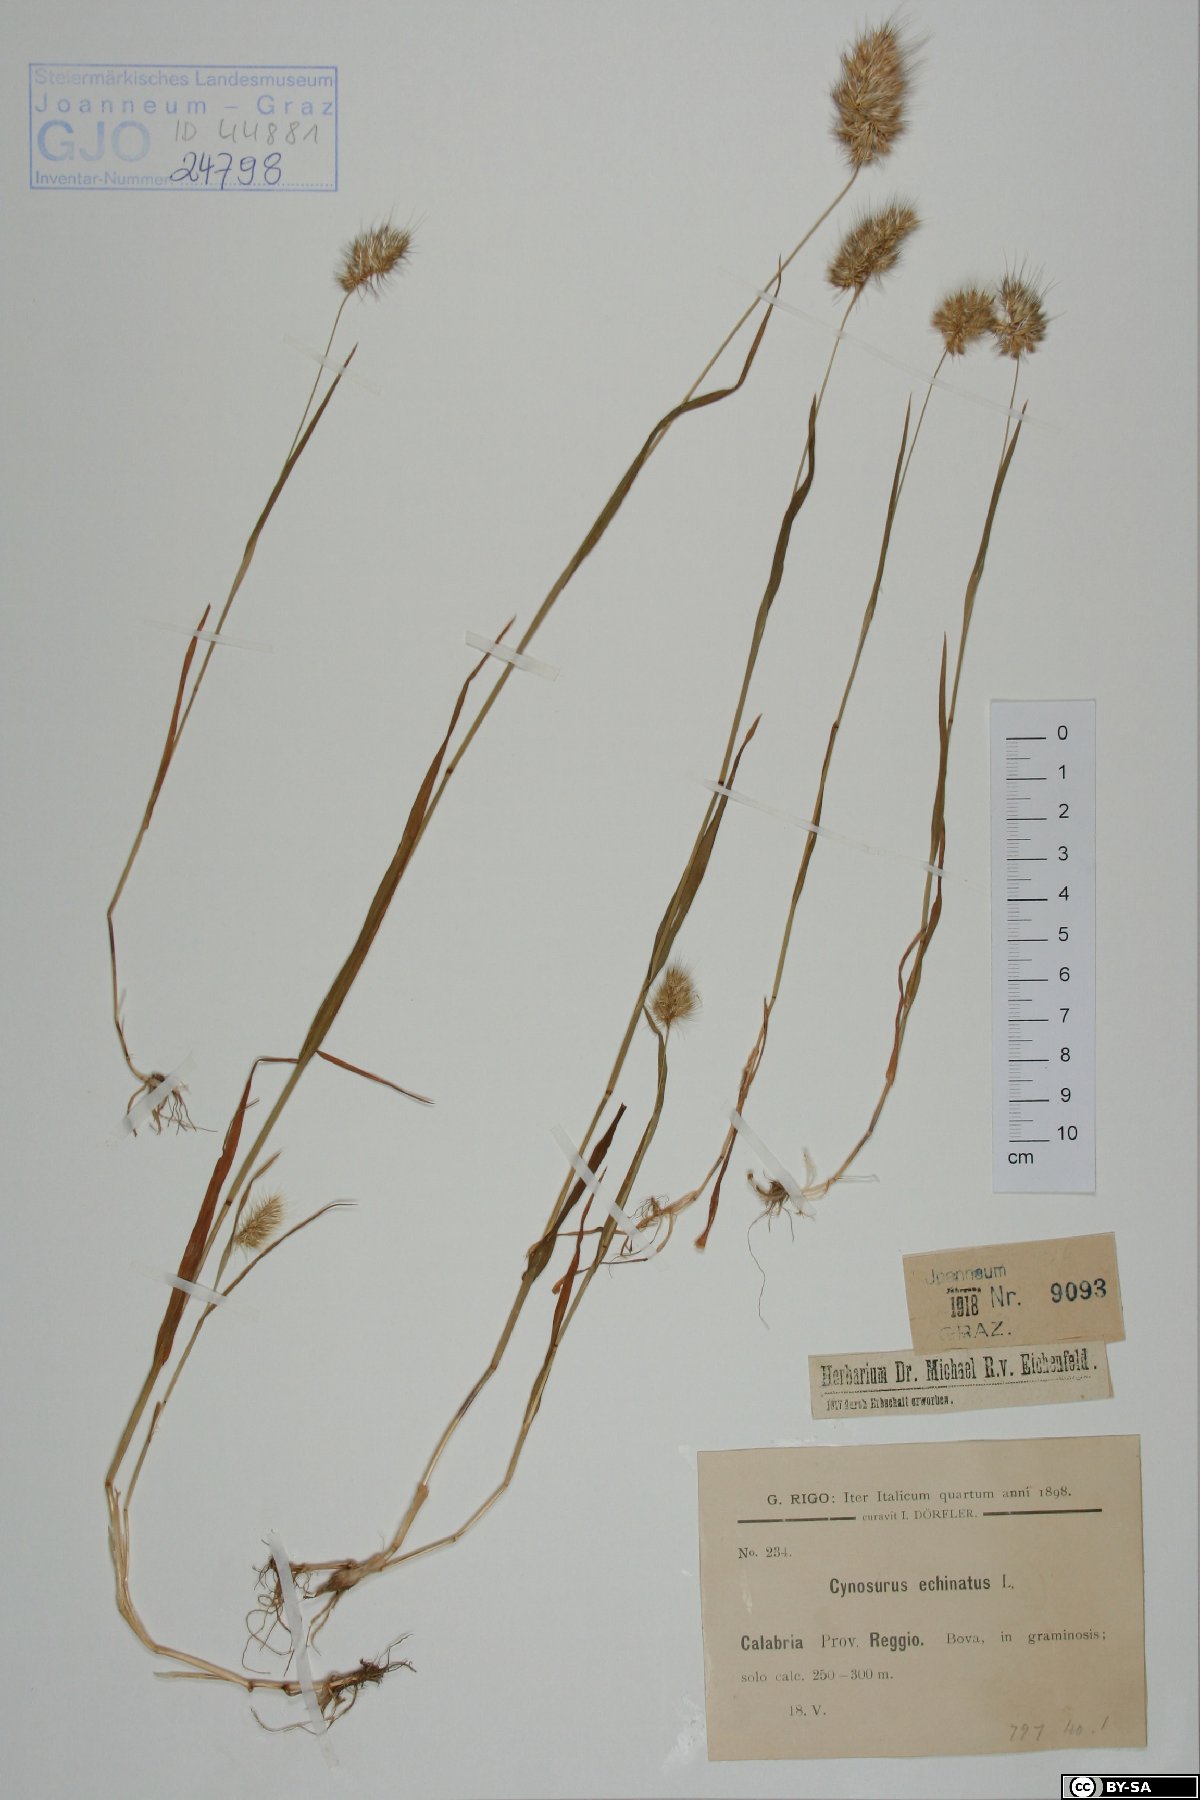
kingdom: Plantae
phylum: Tracheophyta
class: Liliopsida
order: Poales
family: Poaceae
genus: Cynosurus
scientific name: Cynosurus echinatus
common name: Rough dog's-tail
